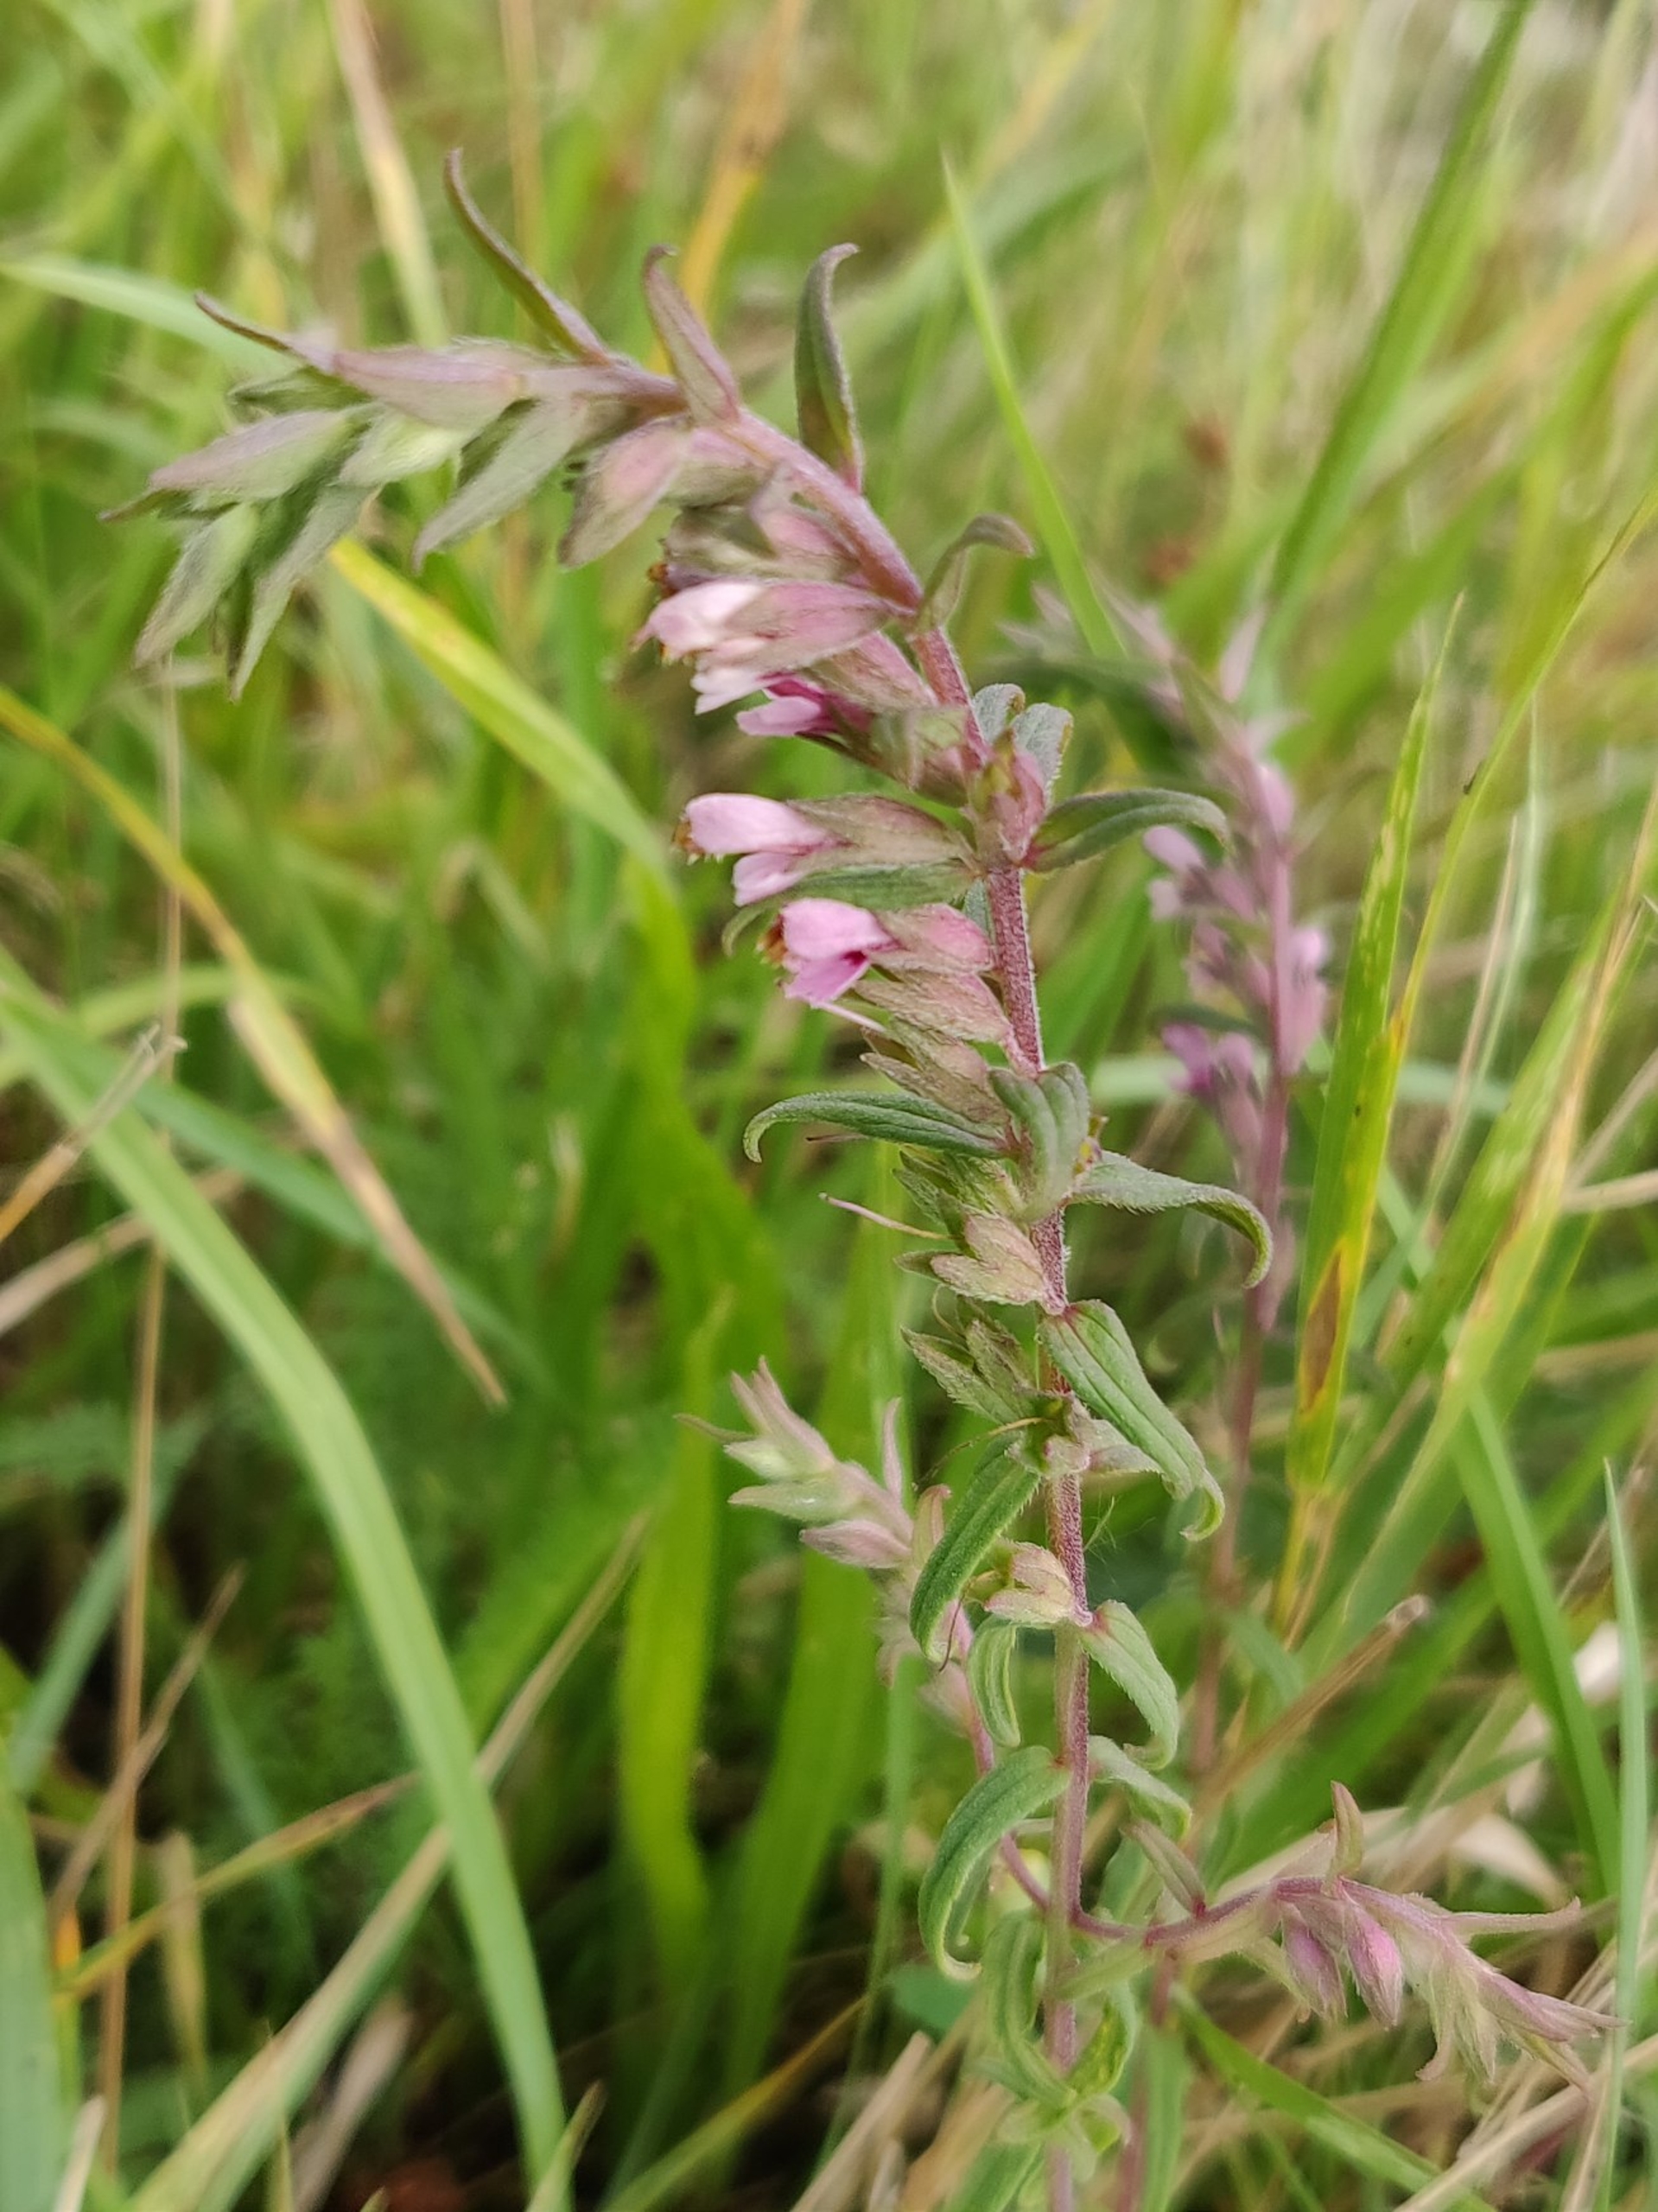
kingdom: Plantae
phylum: Tracheophyta
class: Magnoliopsida
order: Lamiales
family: Orobanchaceae
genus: Odontites
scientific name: Odontites vulgaris
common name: Høst-rødtop
